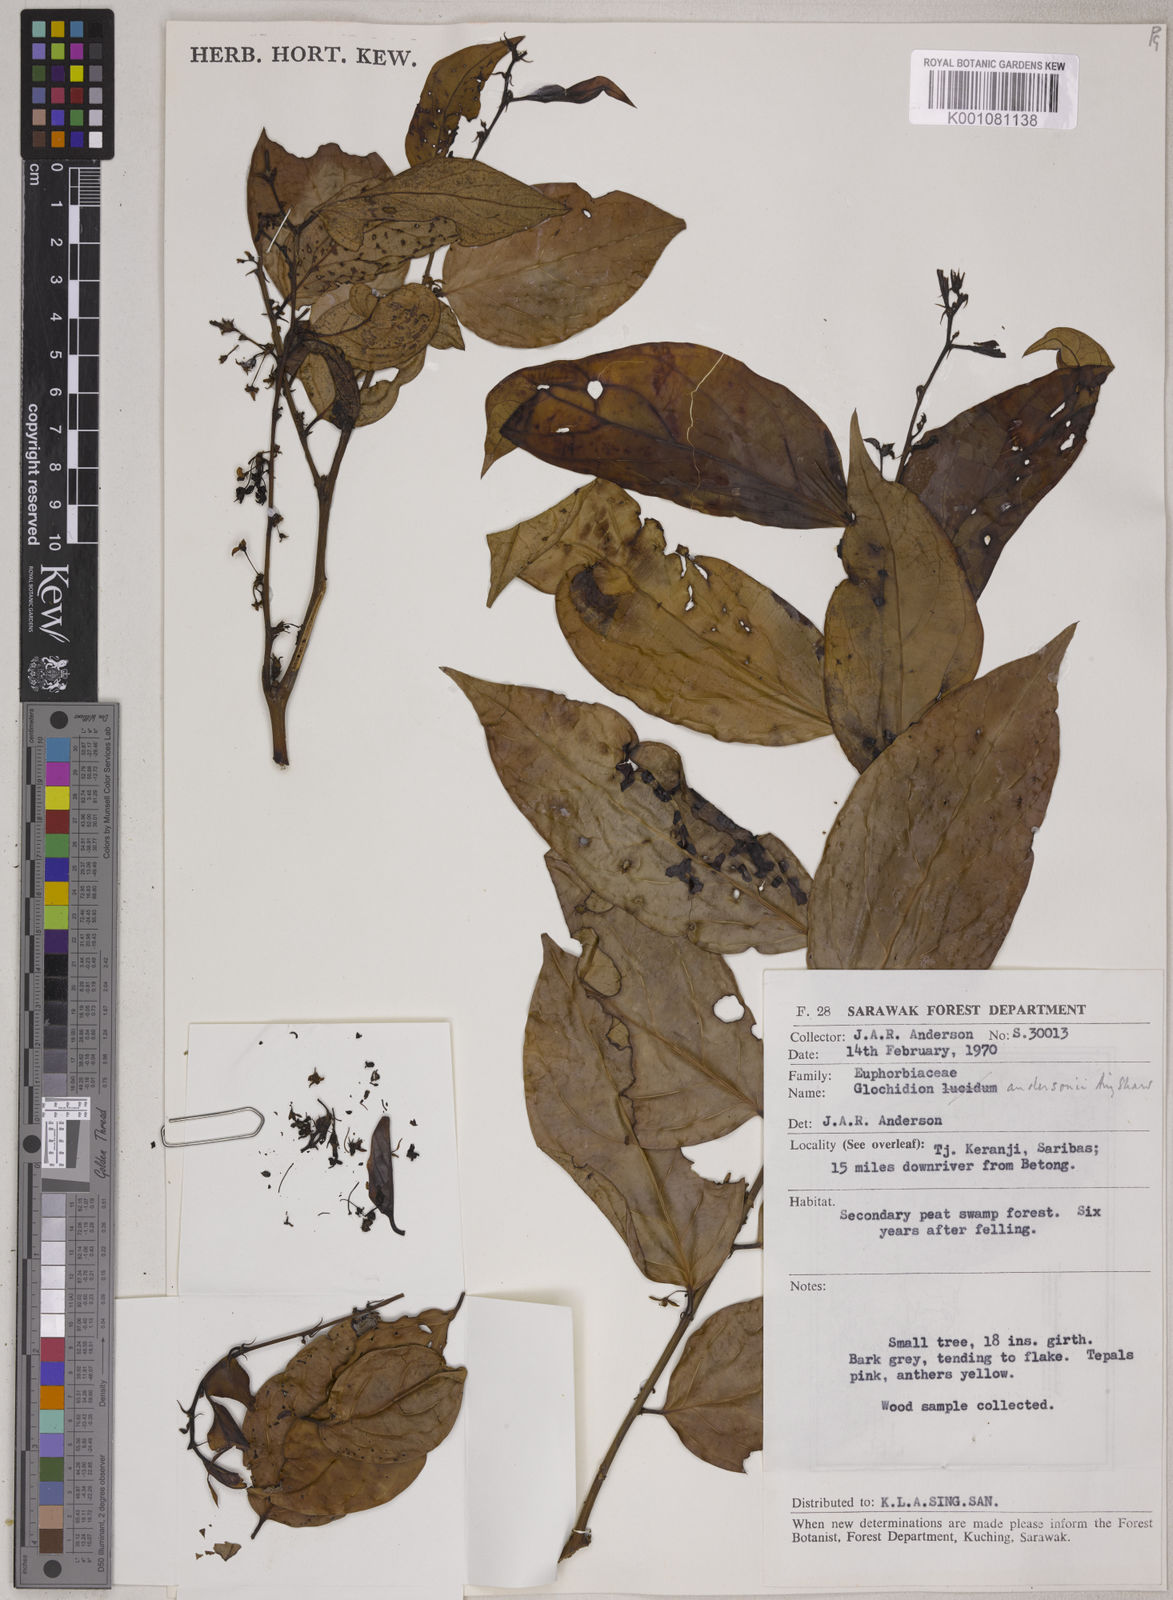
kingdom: Plantae
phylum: Tracheophyta
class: Magnoliopsida
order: Malpighiales
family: Phyllanthaceae
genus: Glochidion
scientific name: Glochidion andersonii
